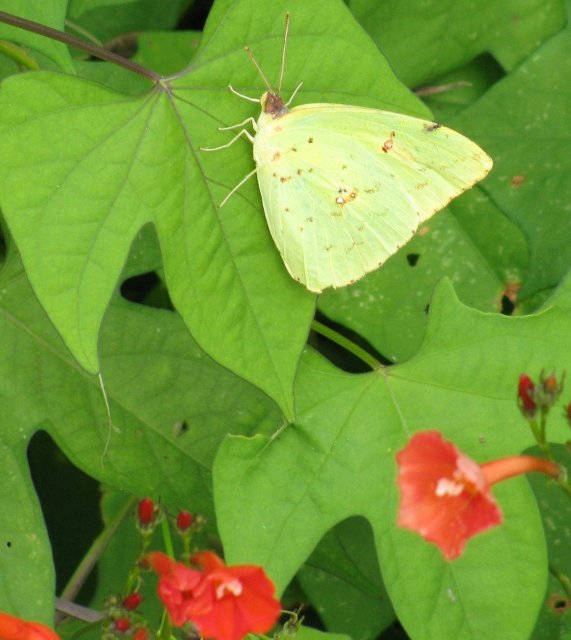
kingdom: Animalia
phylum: Arthropoda
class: Insecta
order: Lepidoptera
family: Pieridae
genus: Phoebis
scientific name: Phoebis sennae
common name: Cloudless Sulphur
